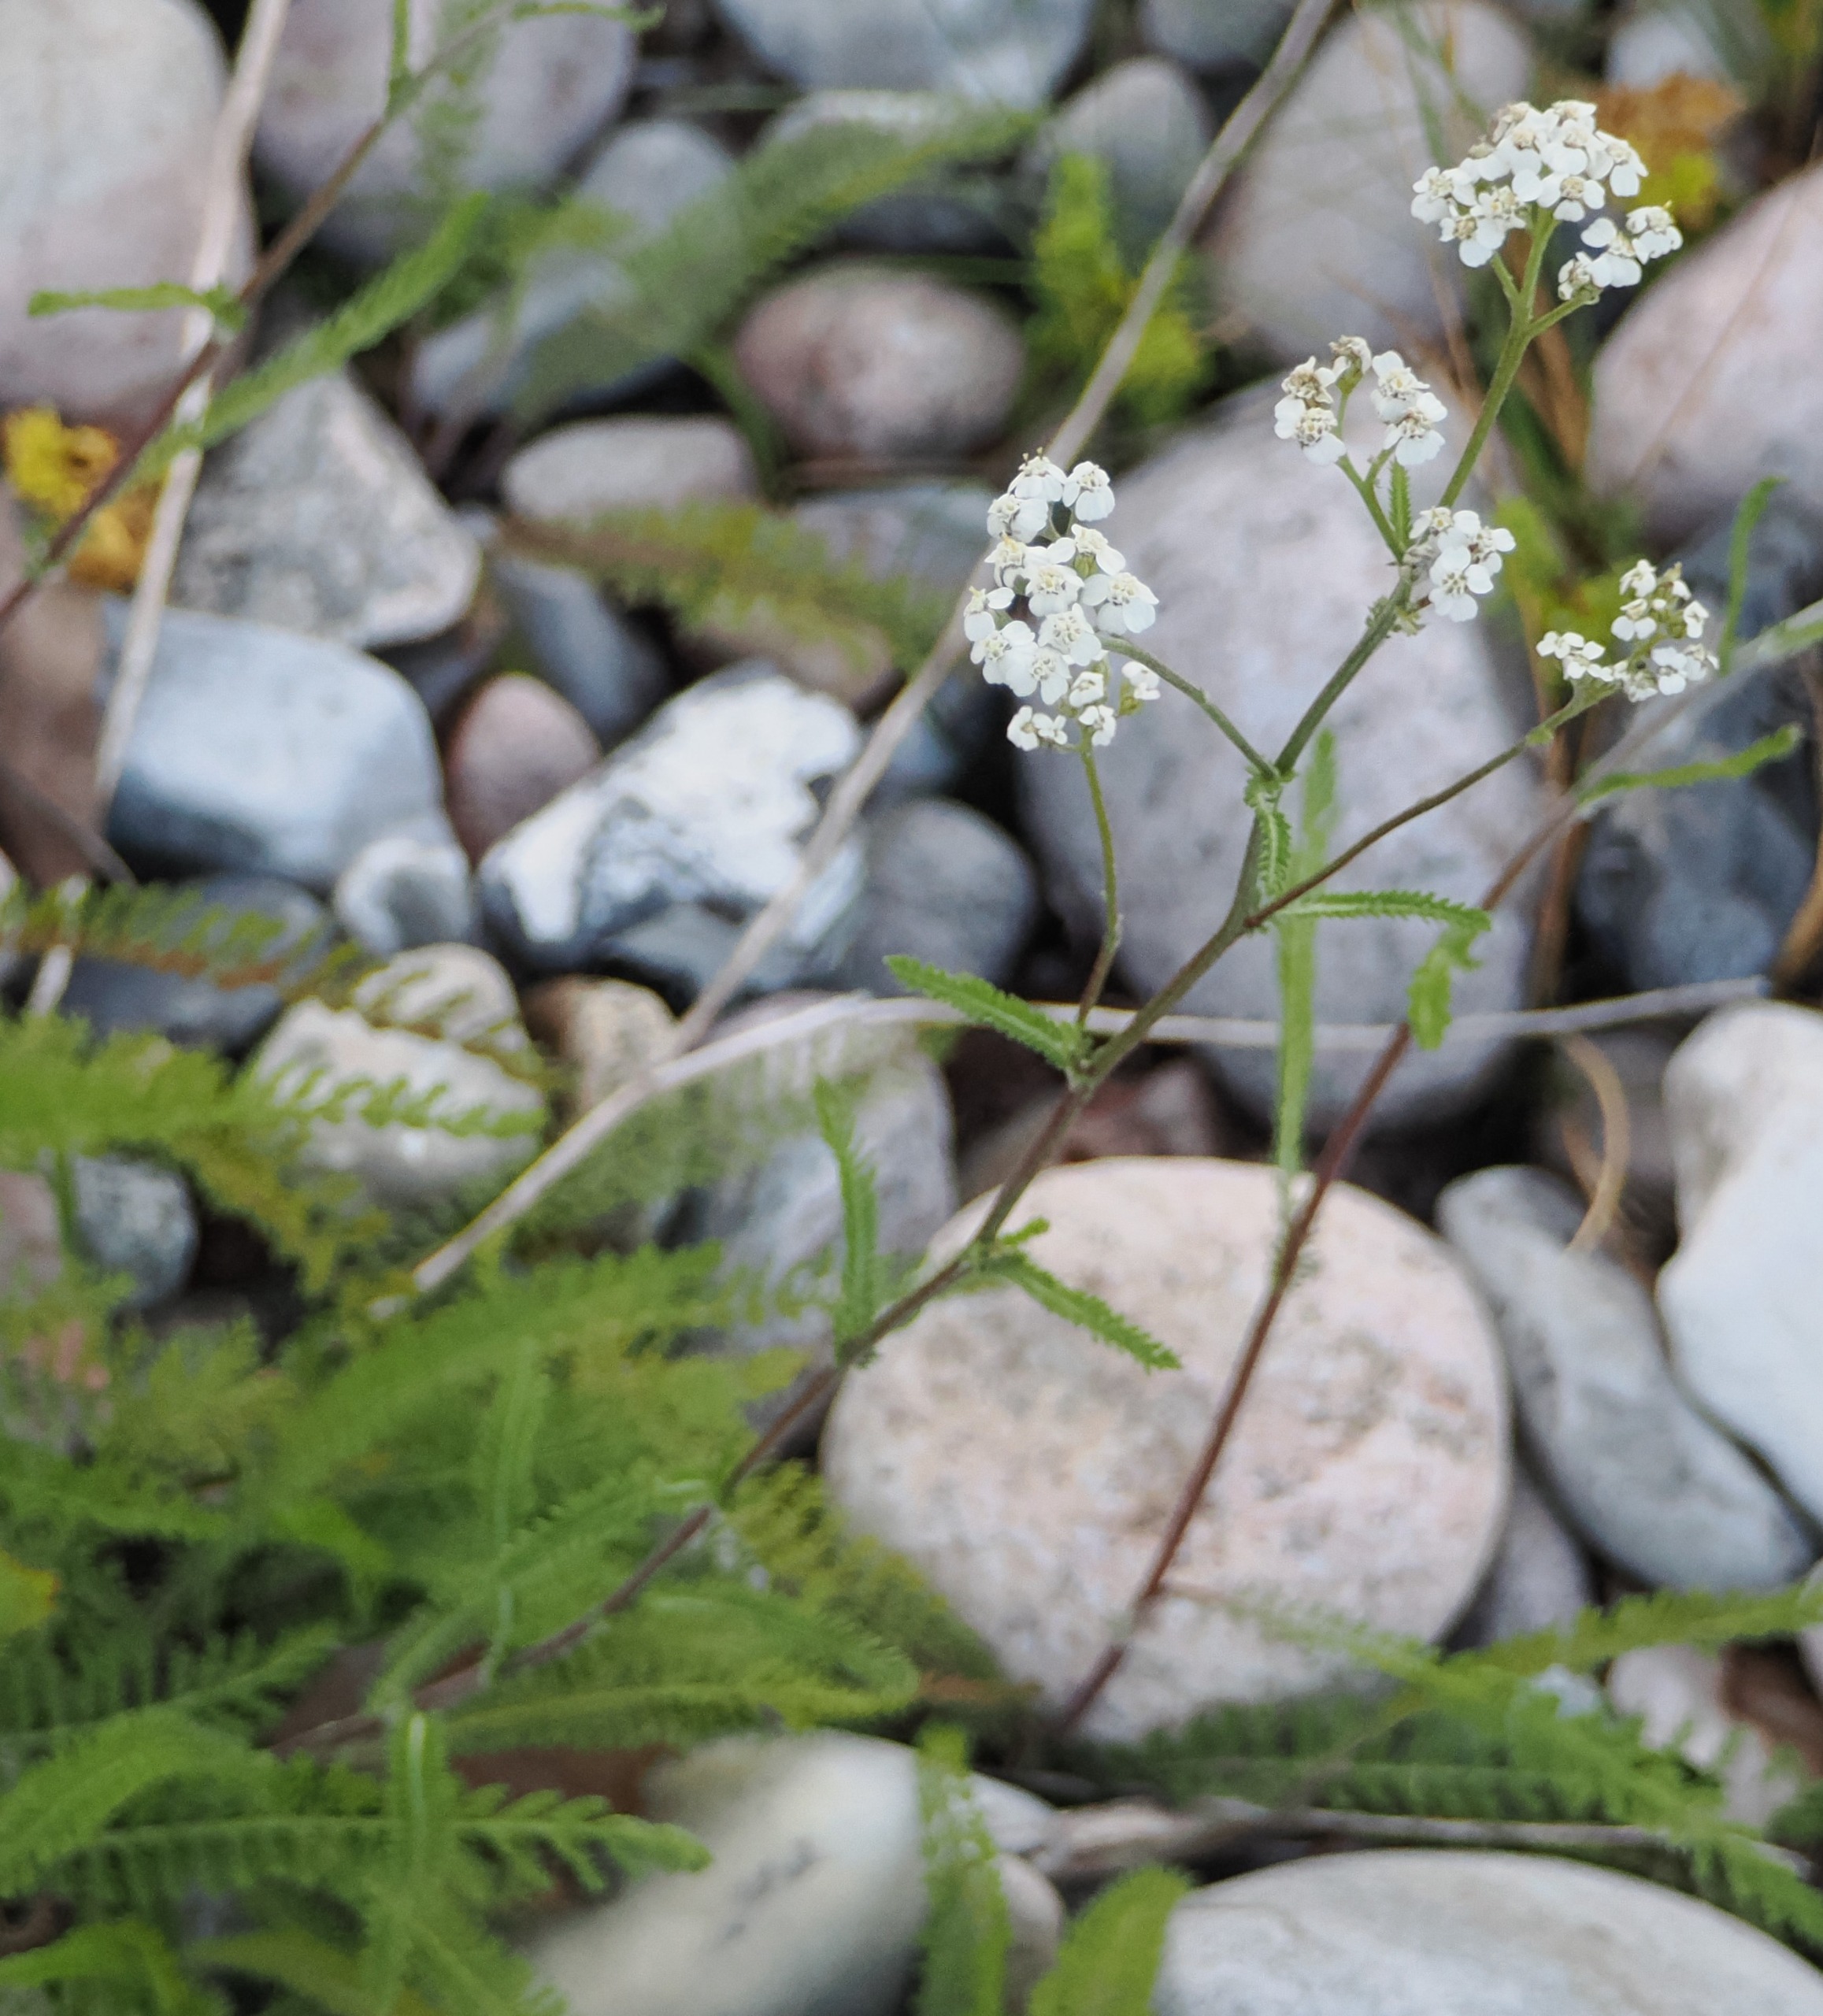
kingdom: Plantae
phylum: Tracheophyta
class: Magnoliopsida
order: Asterales
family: Asteraceae
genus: Achillea
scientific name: Achillea millefolium
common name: Almindelig røllike
